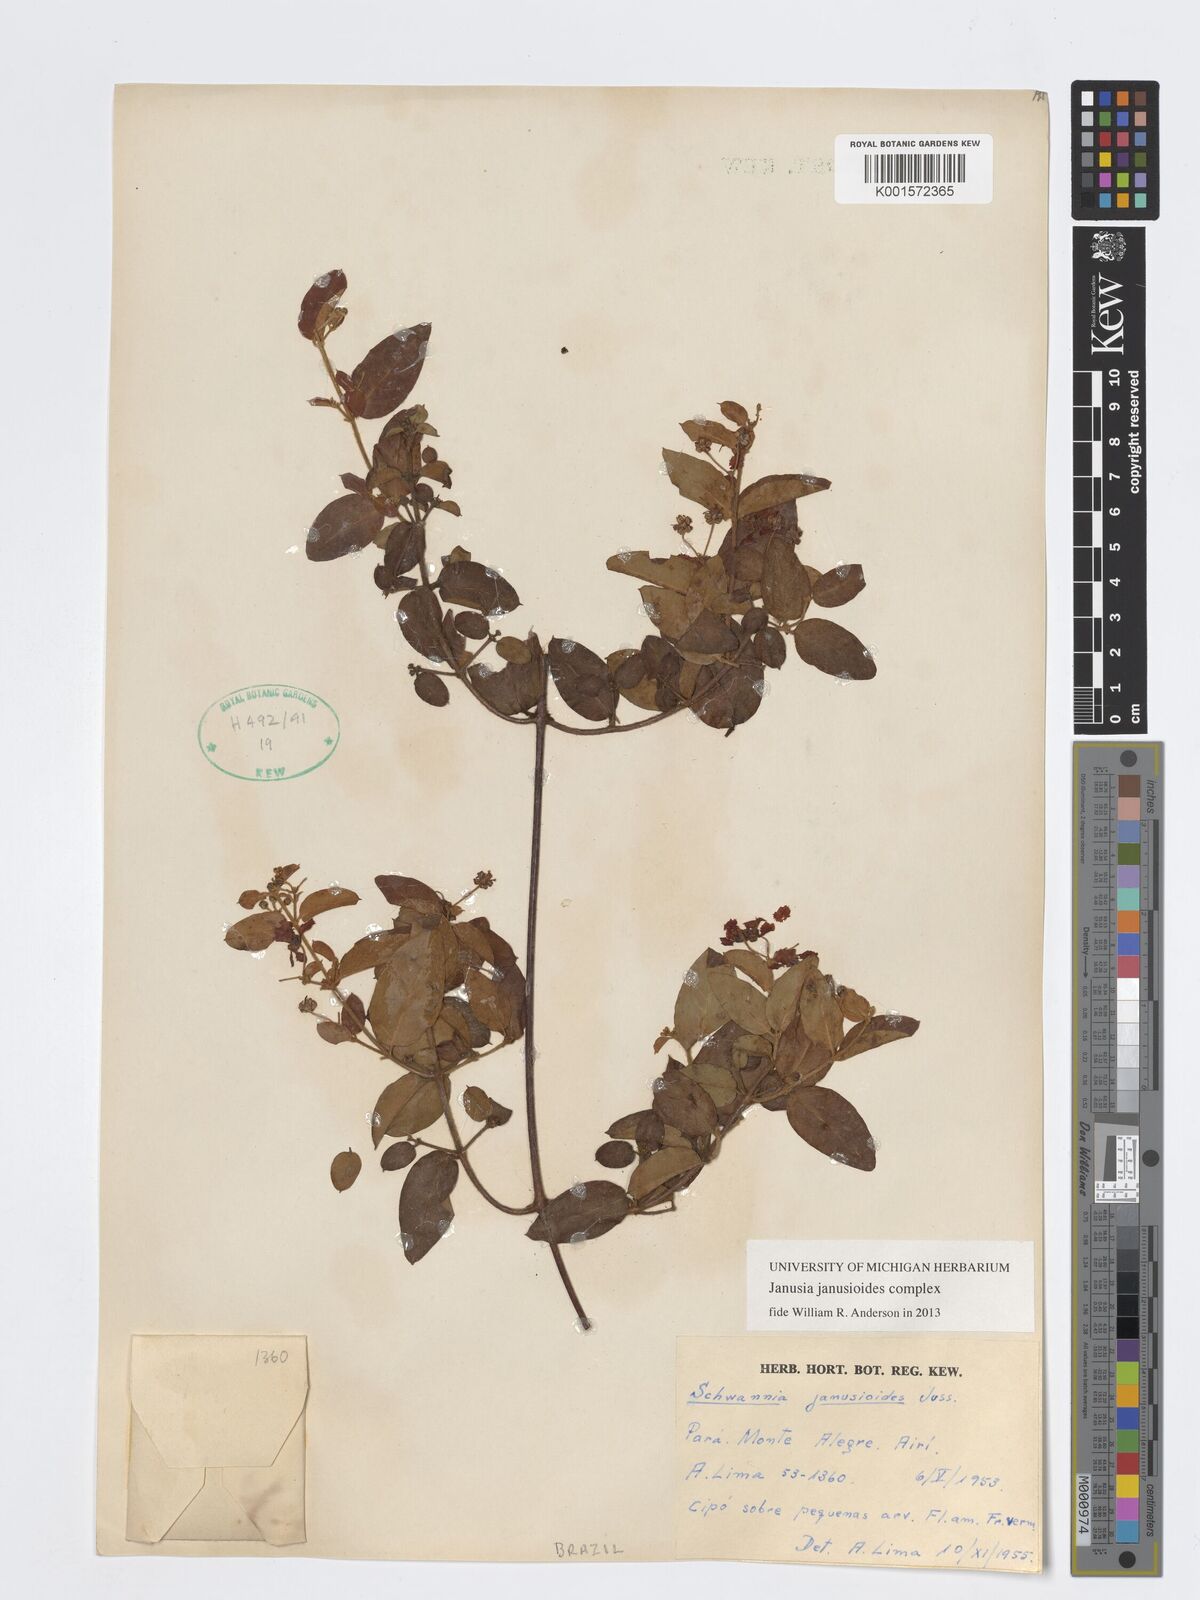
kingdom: Plantae
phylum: Tracheophyta
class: Magnoliopsida
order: Malpighiales
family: Malpighiaceae
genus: Janusia
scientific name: Janusia janusioides
